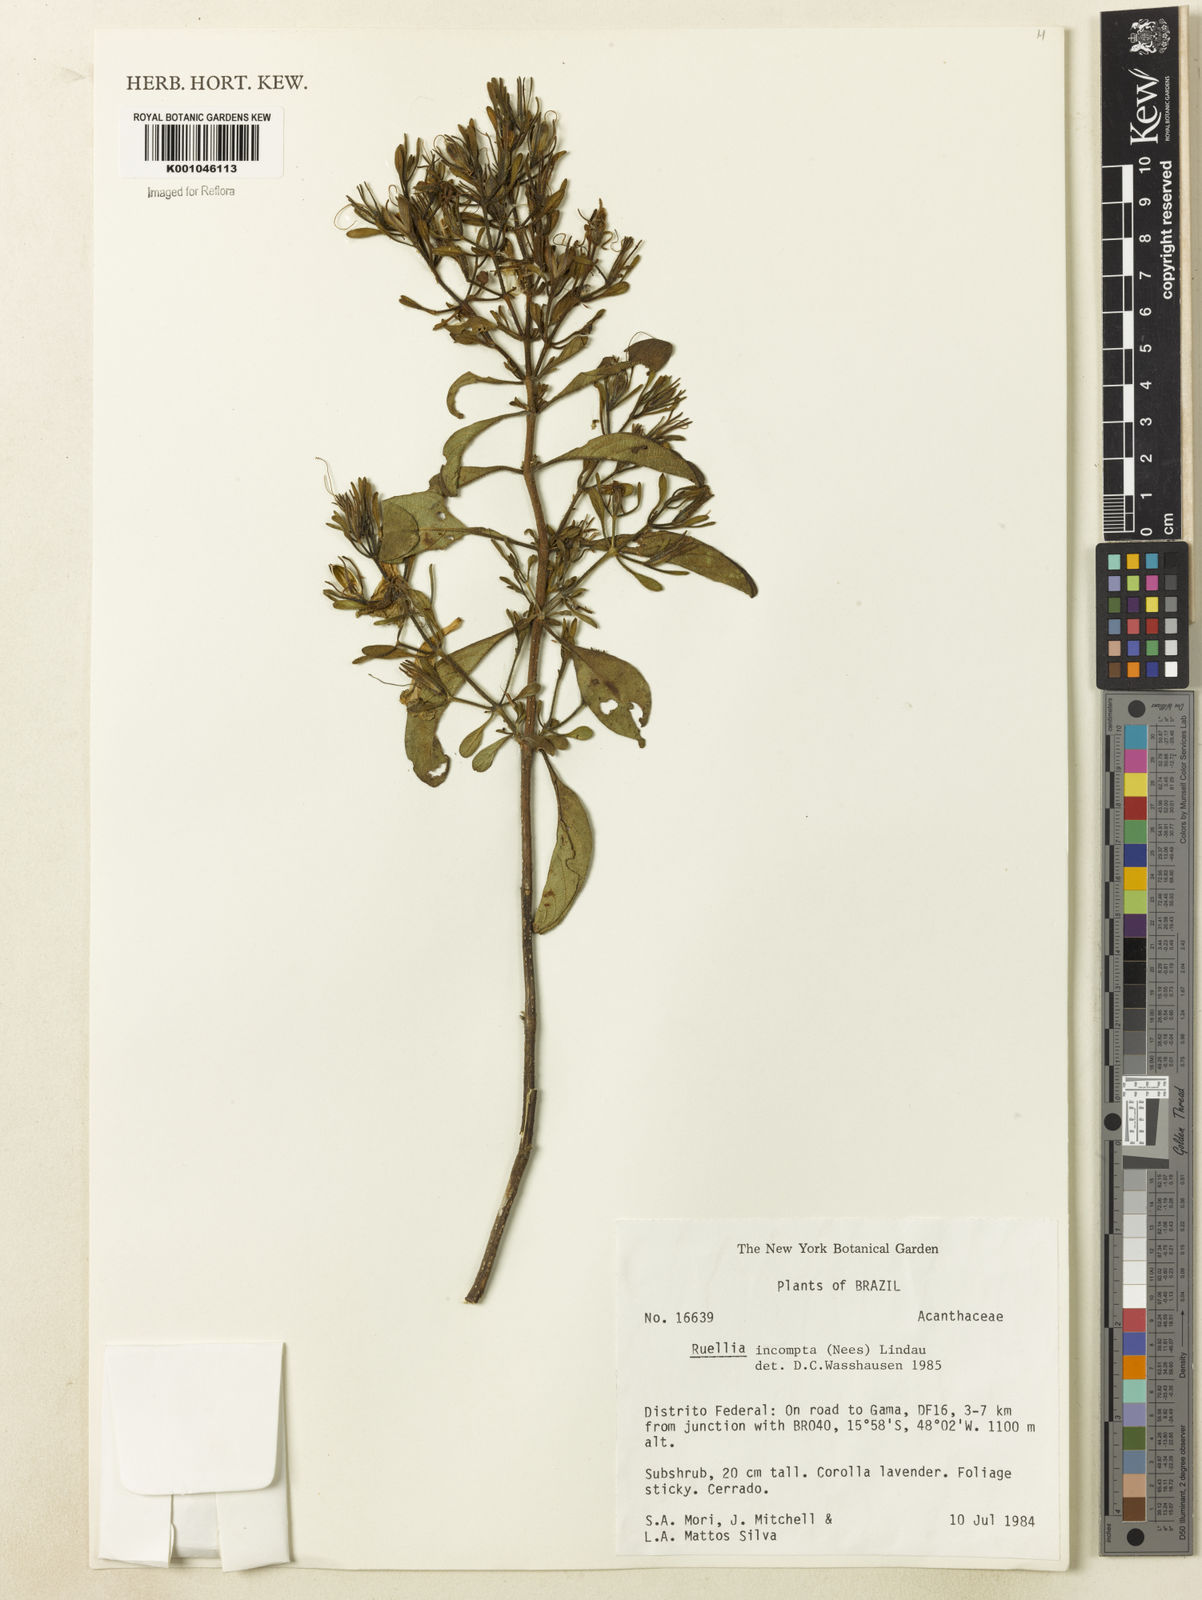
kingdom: Plantae
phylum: Tracheophyta
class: Magnoliopsida
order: Lamiales
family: Acanthaceae
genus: Ruellia
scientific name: Ruellia
